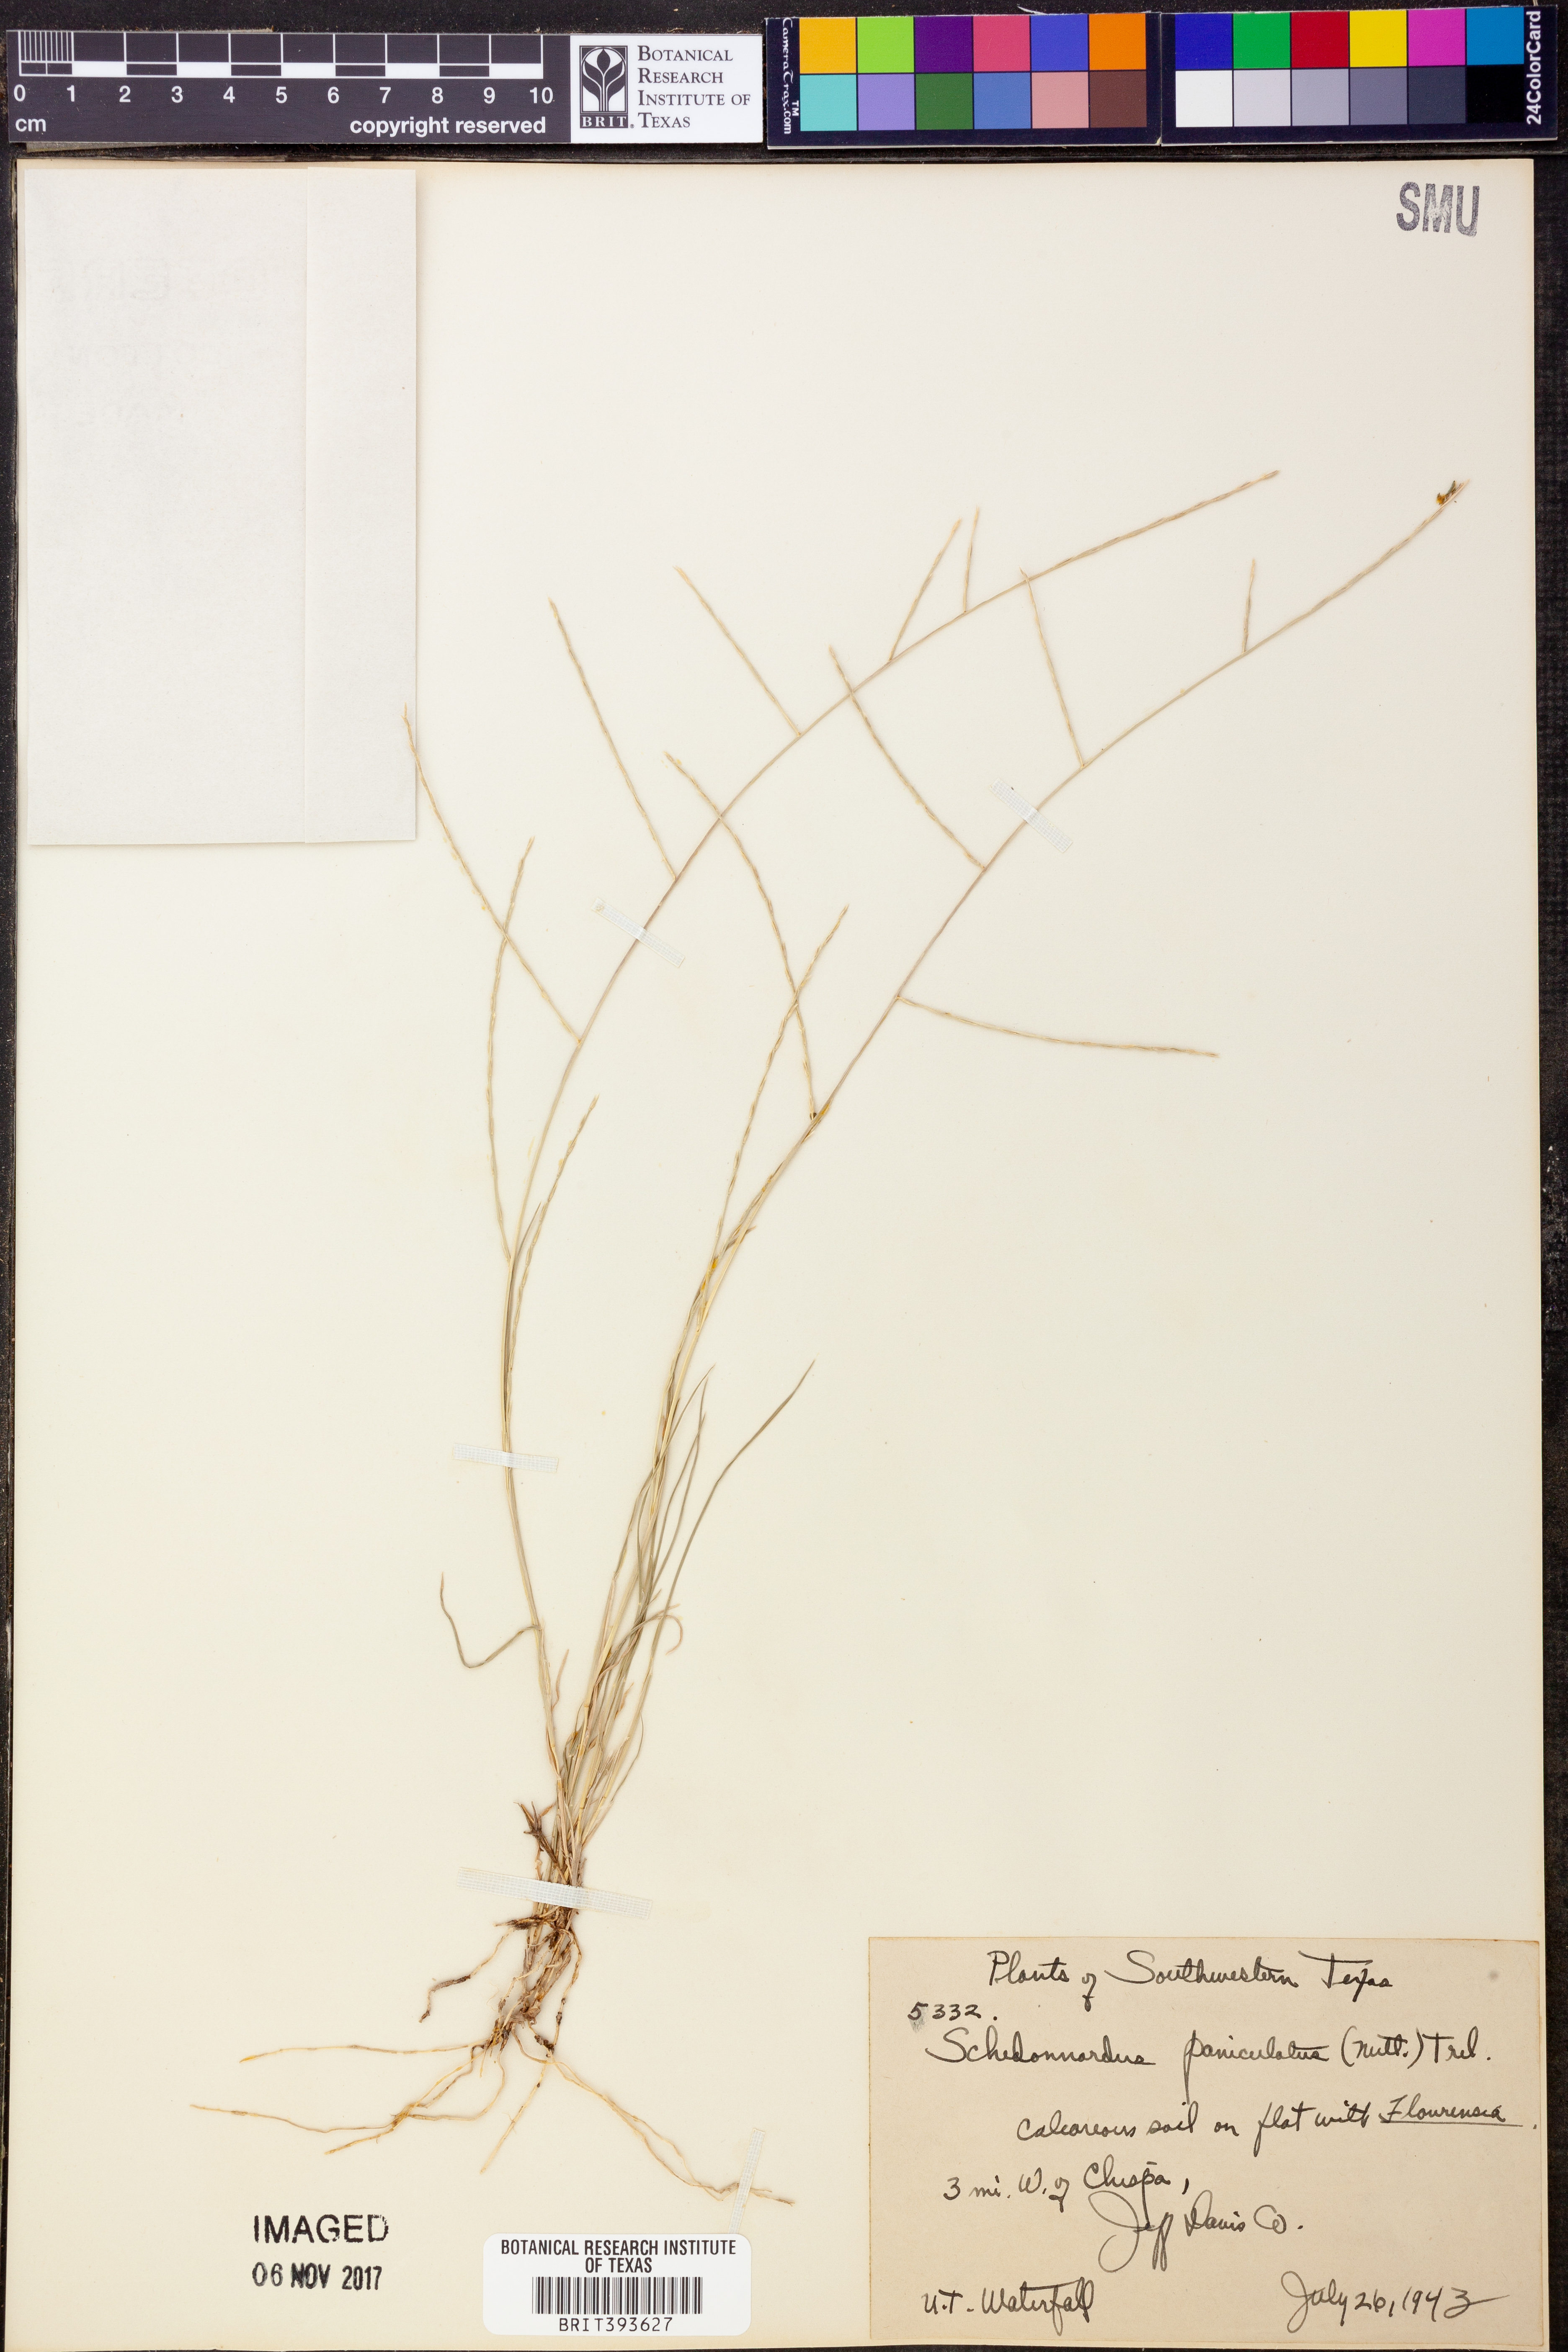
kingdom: Plantae
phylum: Tracheophyta
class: Liliopsida
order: Poales
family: Poaceae
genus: Muhlenbergia
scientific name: Muhlenbergia paniculata
